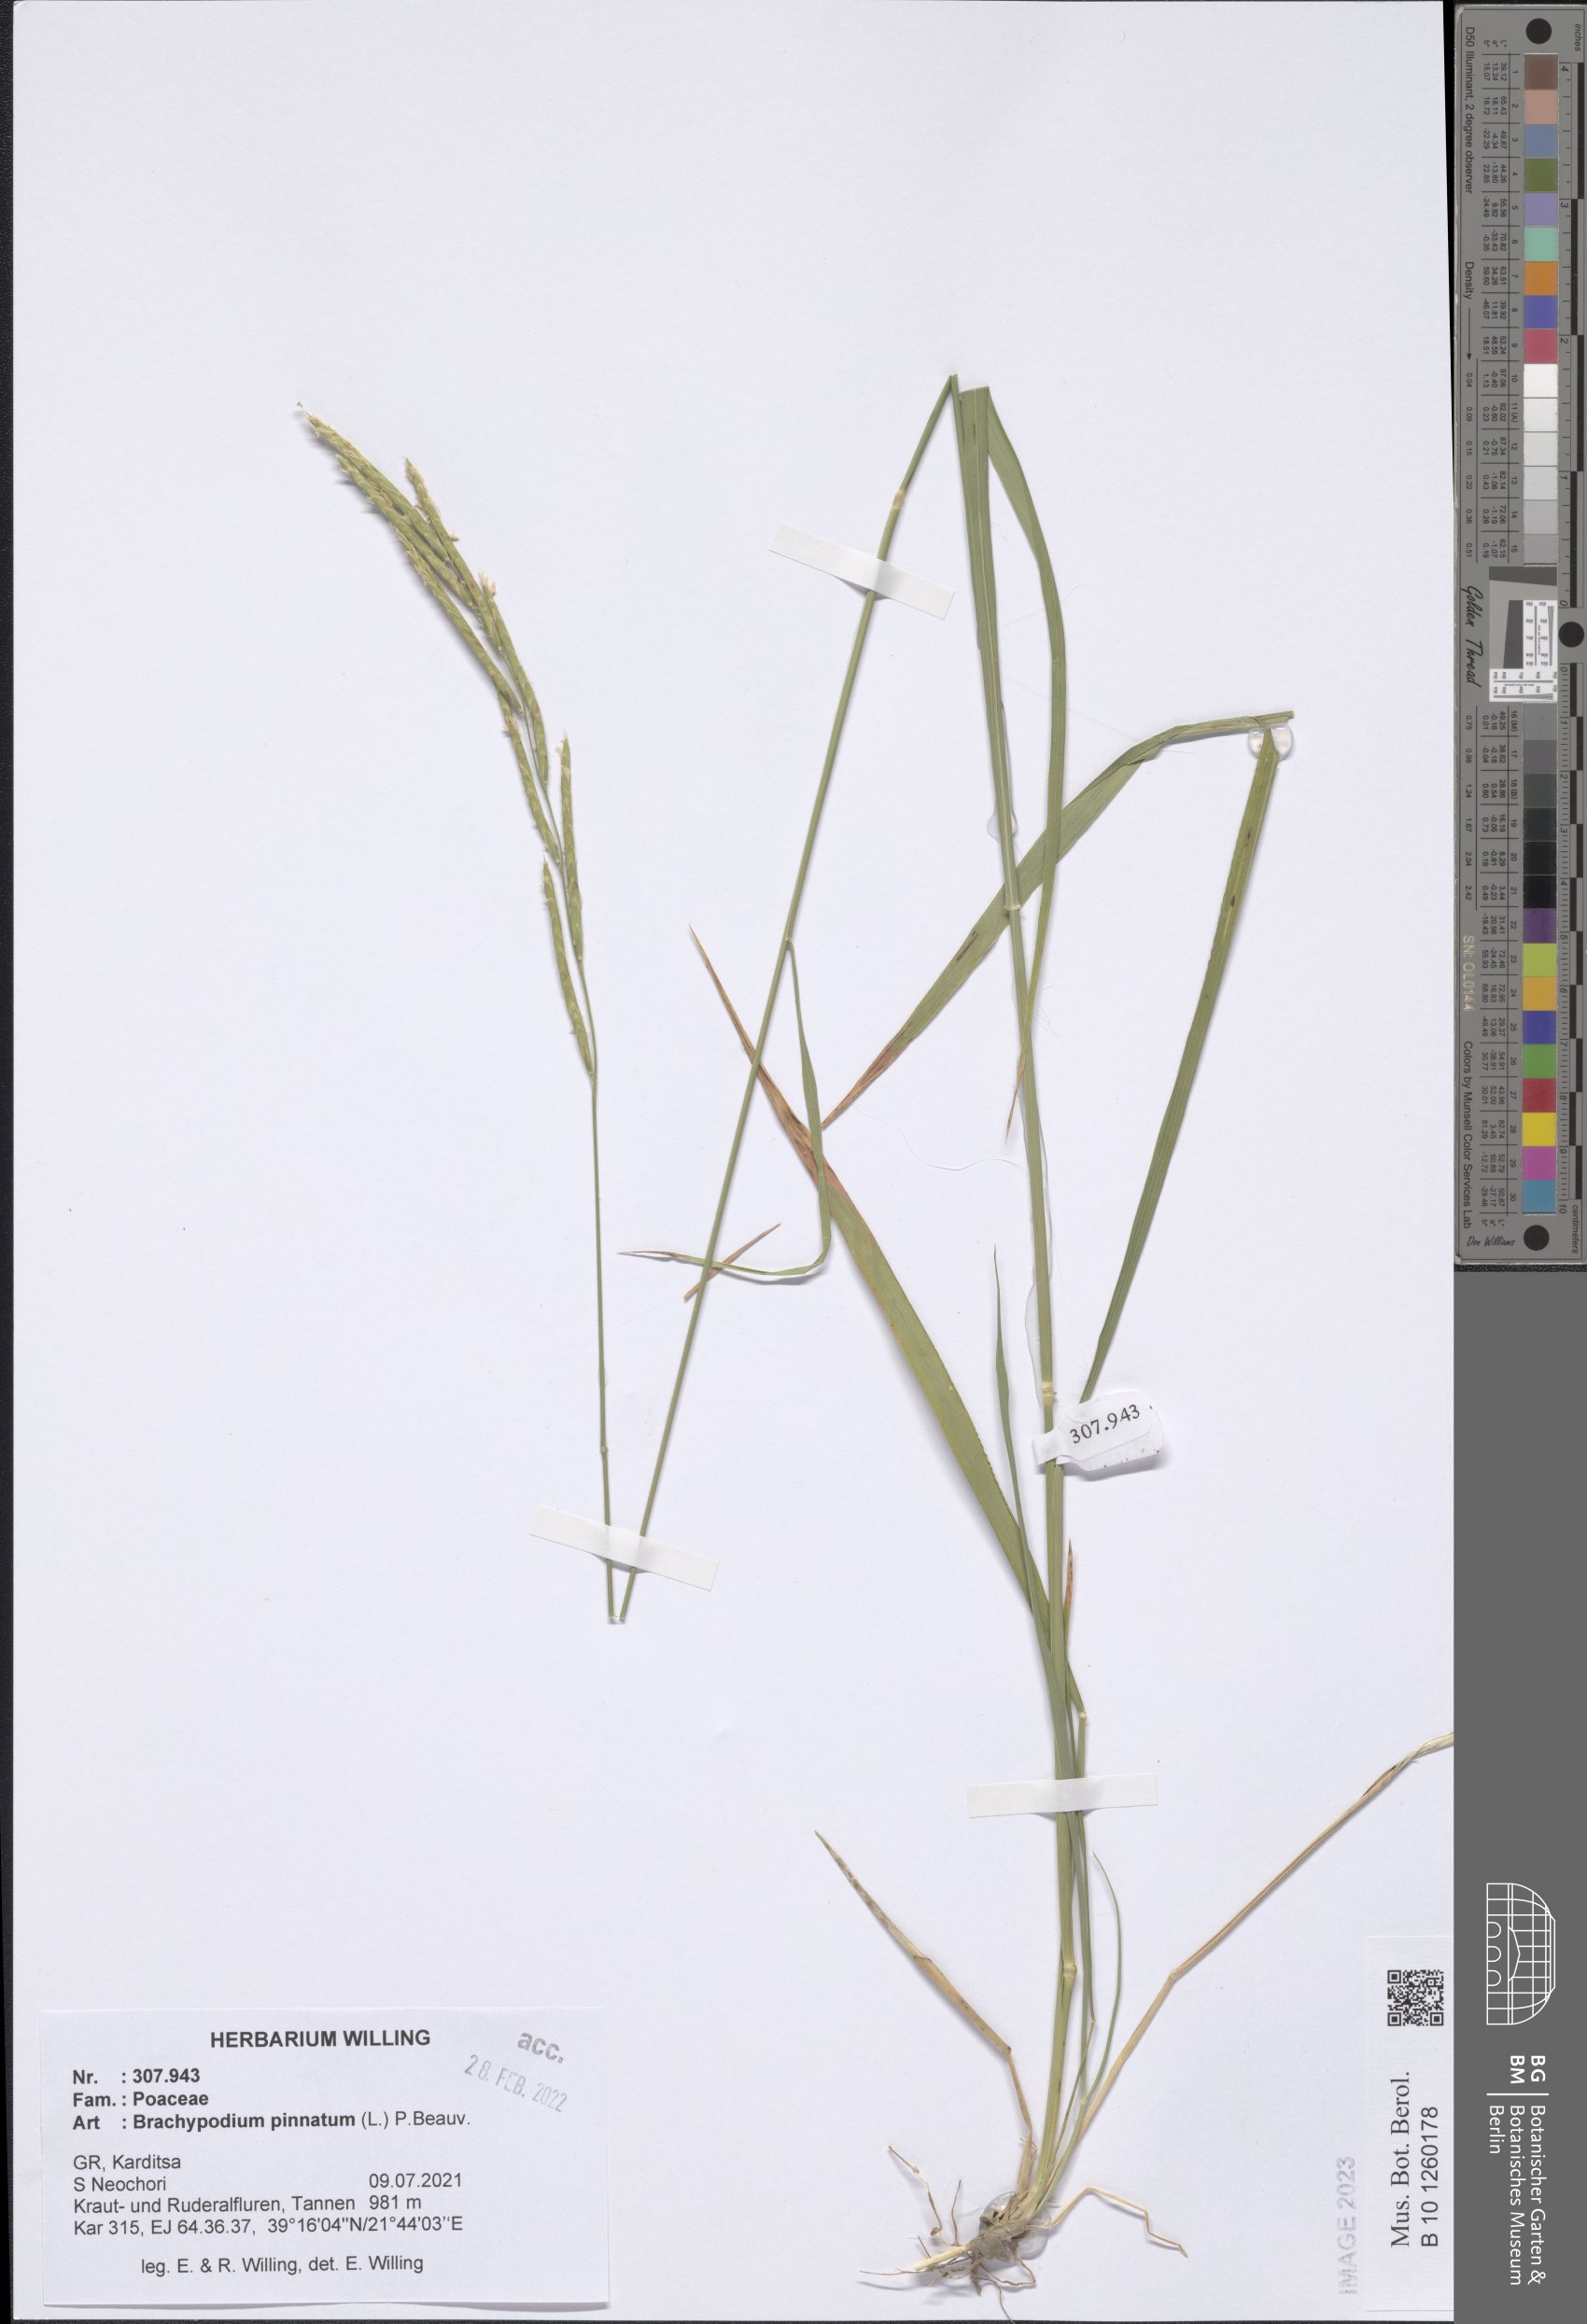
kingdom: Plantae
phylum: Tracheophyta
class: Liliopsida
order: Poales
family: Poaceae
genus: Brachypodium
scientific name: Brachypodium pinnatum
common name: Tor grass
